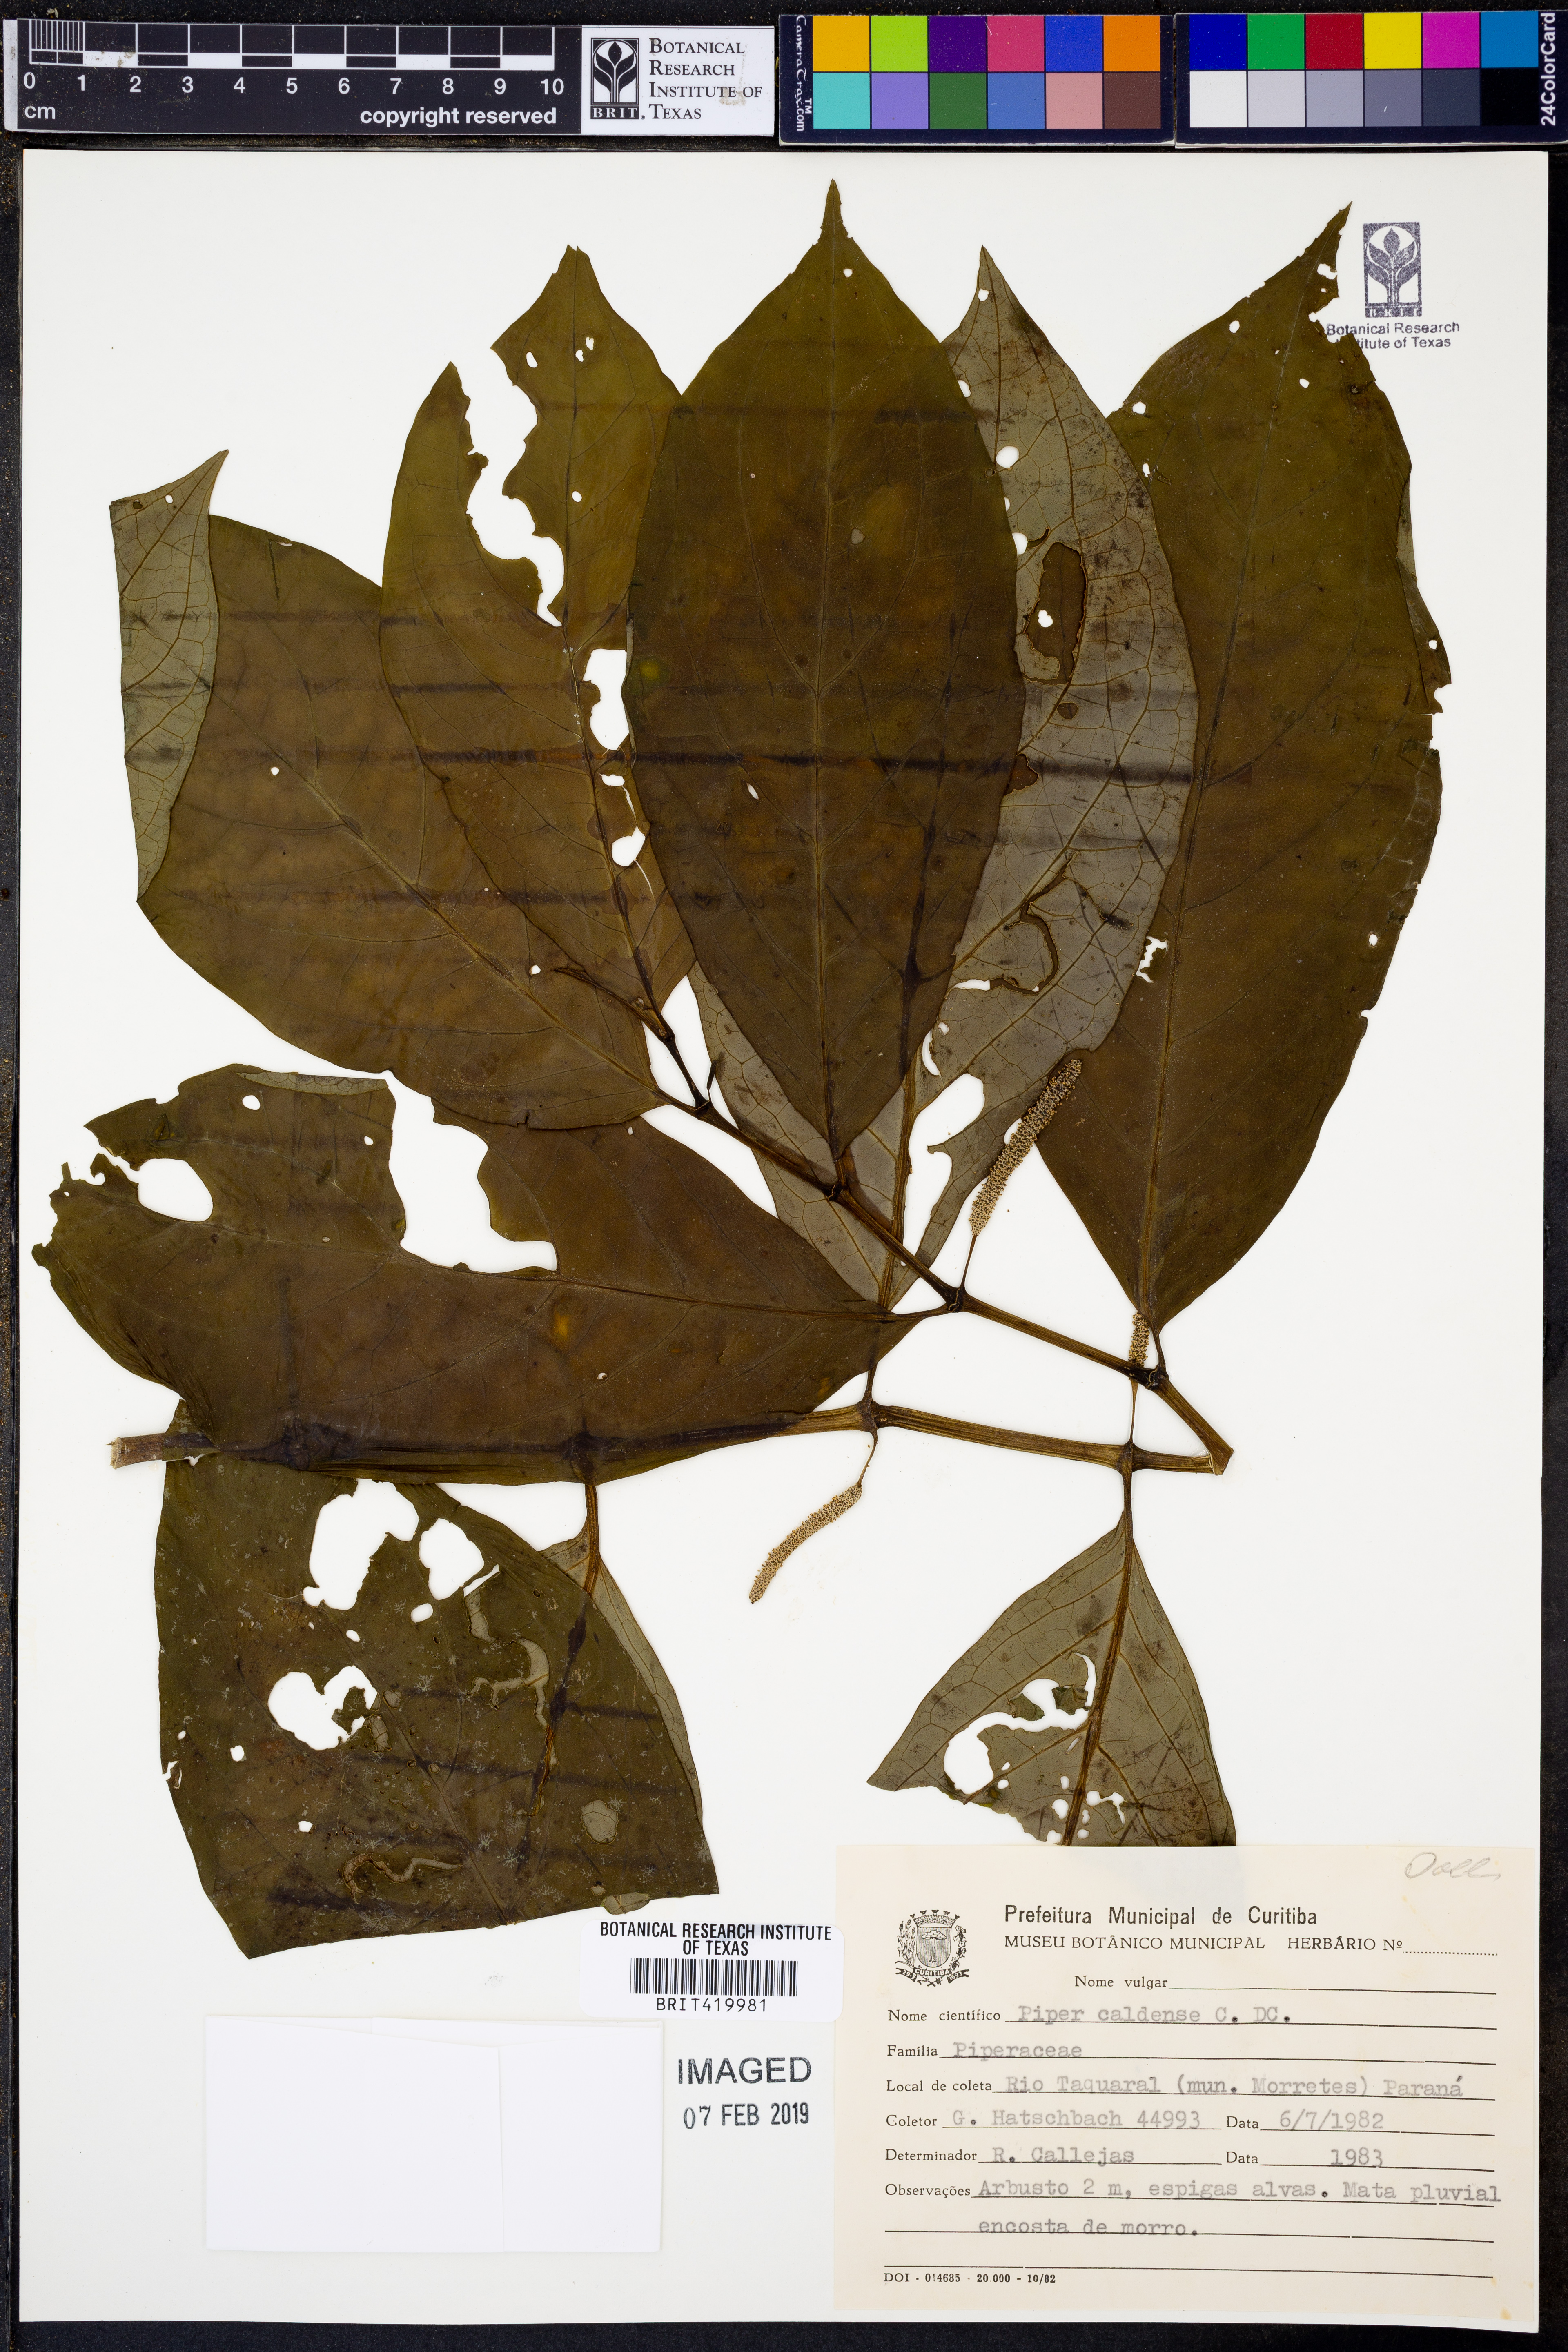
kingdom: Plantae
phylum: Tracheophyta
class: Magnoliopsida
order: Piperales
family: Piperaceae
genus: Piper
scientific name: Piper caldense
